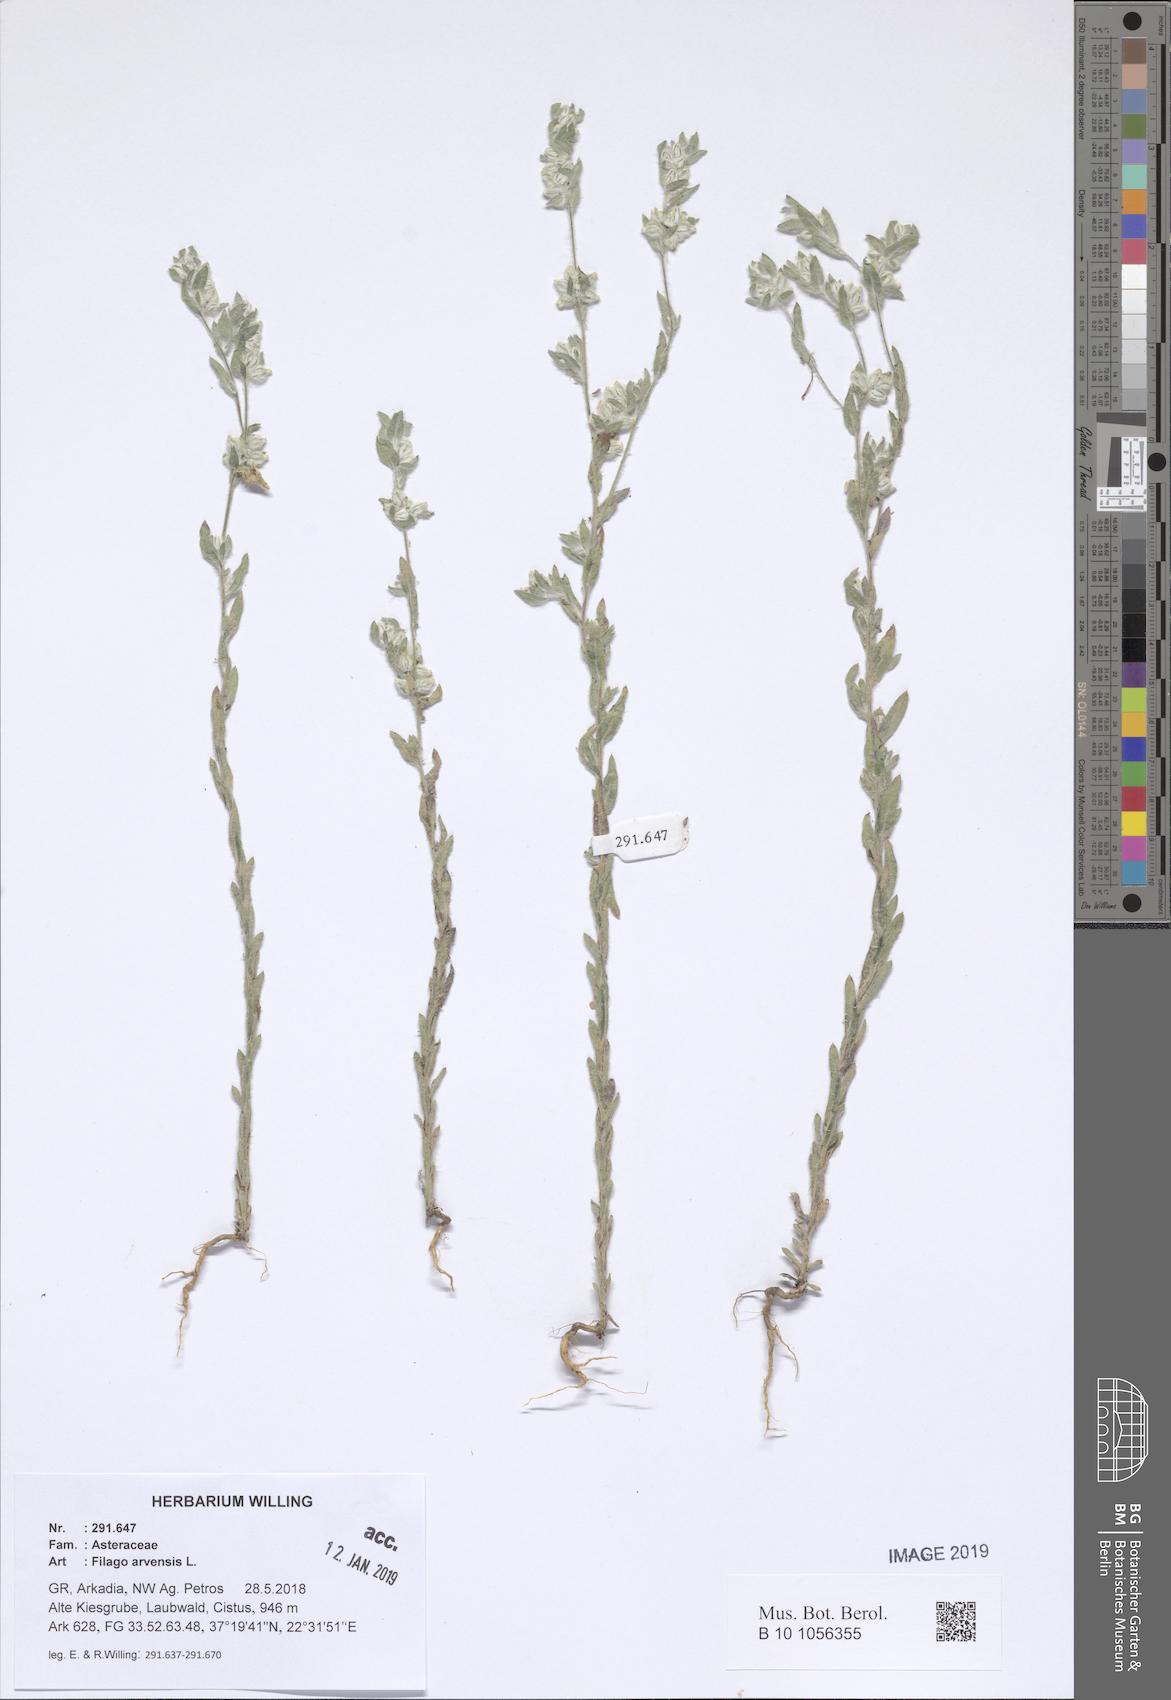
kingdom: Plantae
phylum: Tracheophyta
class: Magnoliopsida
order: Asterales
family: Asteraceae
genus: Filago
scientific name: Filago arvensis
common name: Field cudweed
